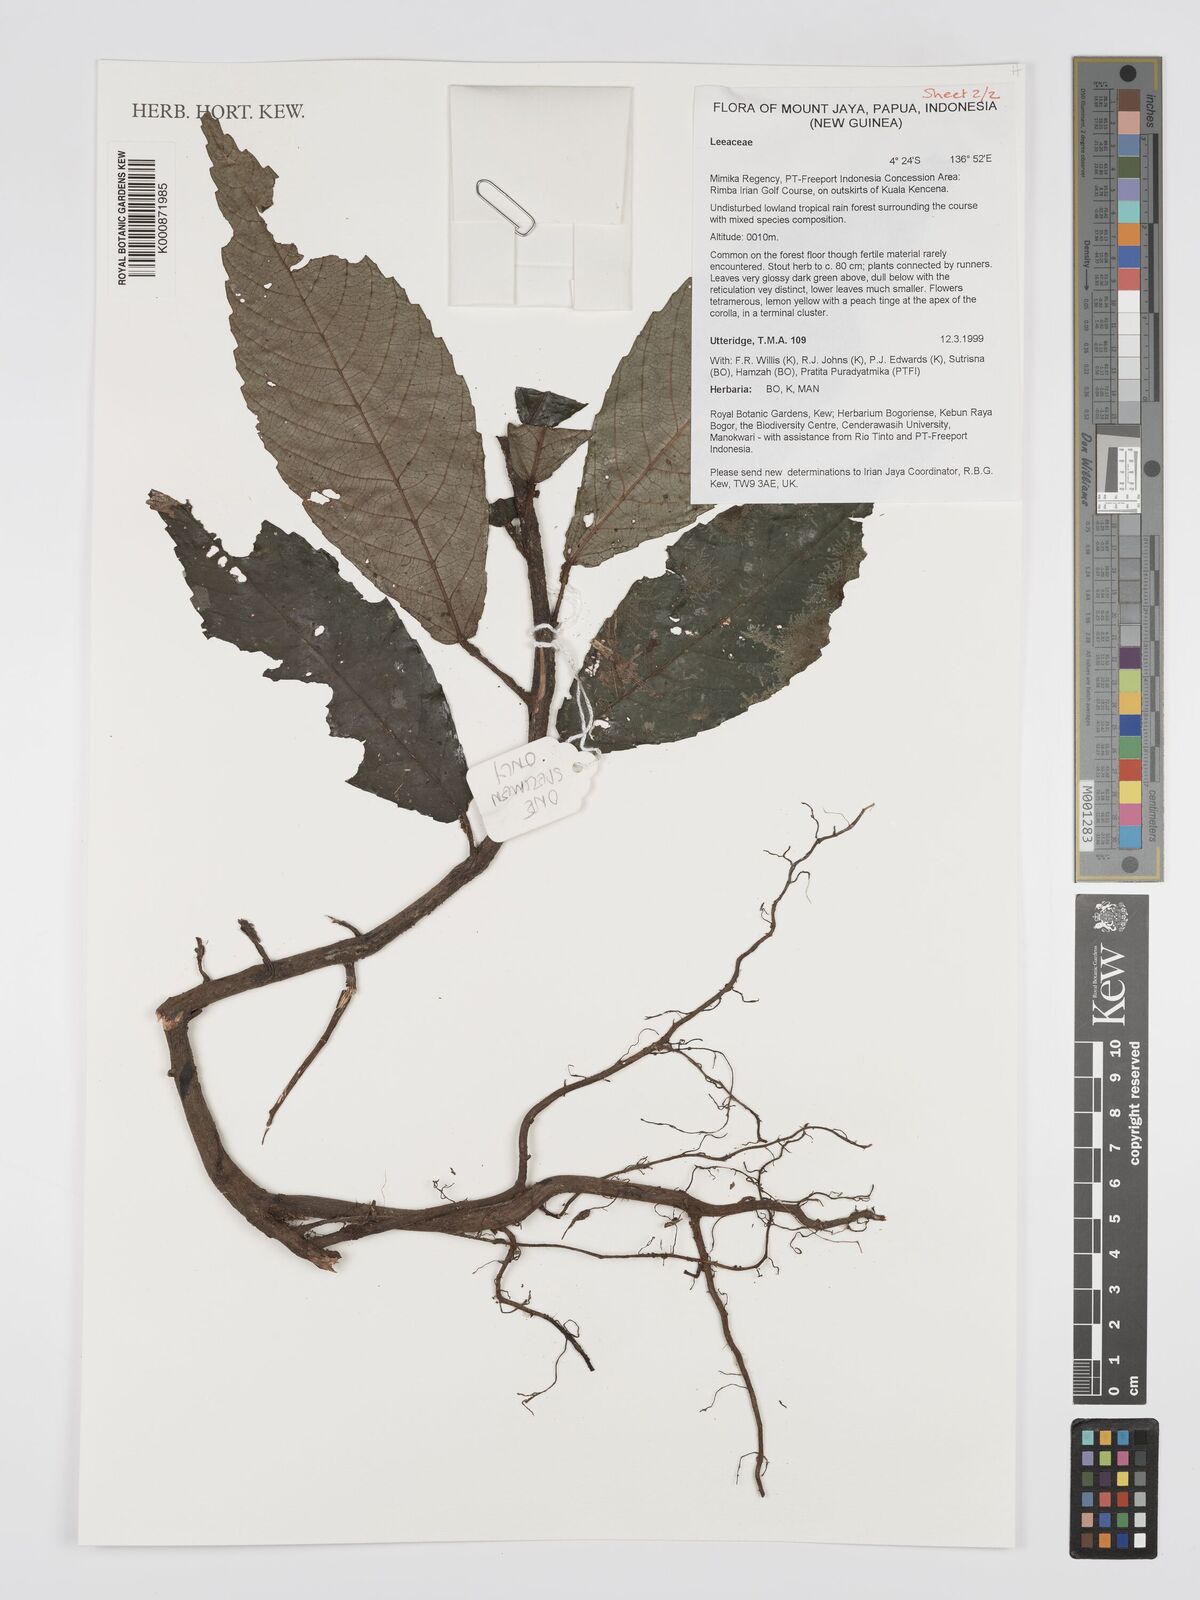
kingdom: Plantae
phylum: Tracheophyta
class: Magnoliopsida
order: Vitales
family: Vitaceae
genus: Leea
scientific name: Leea
